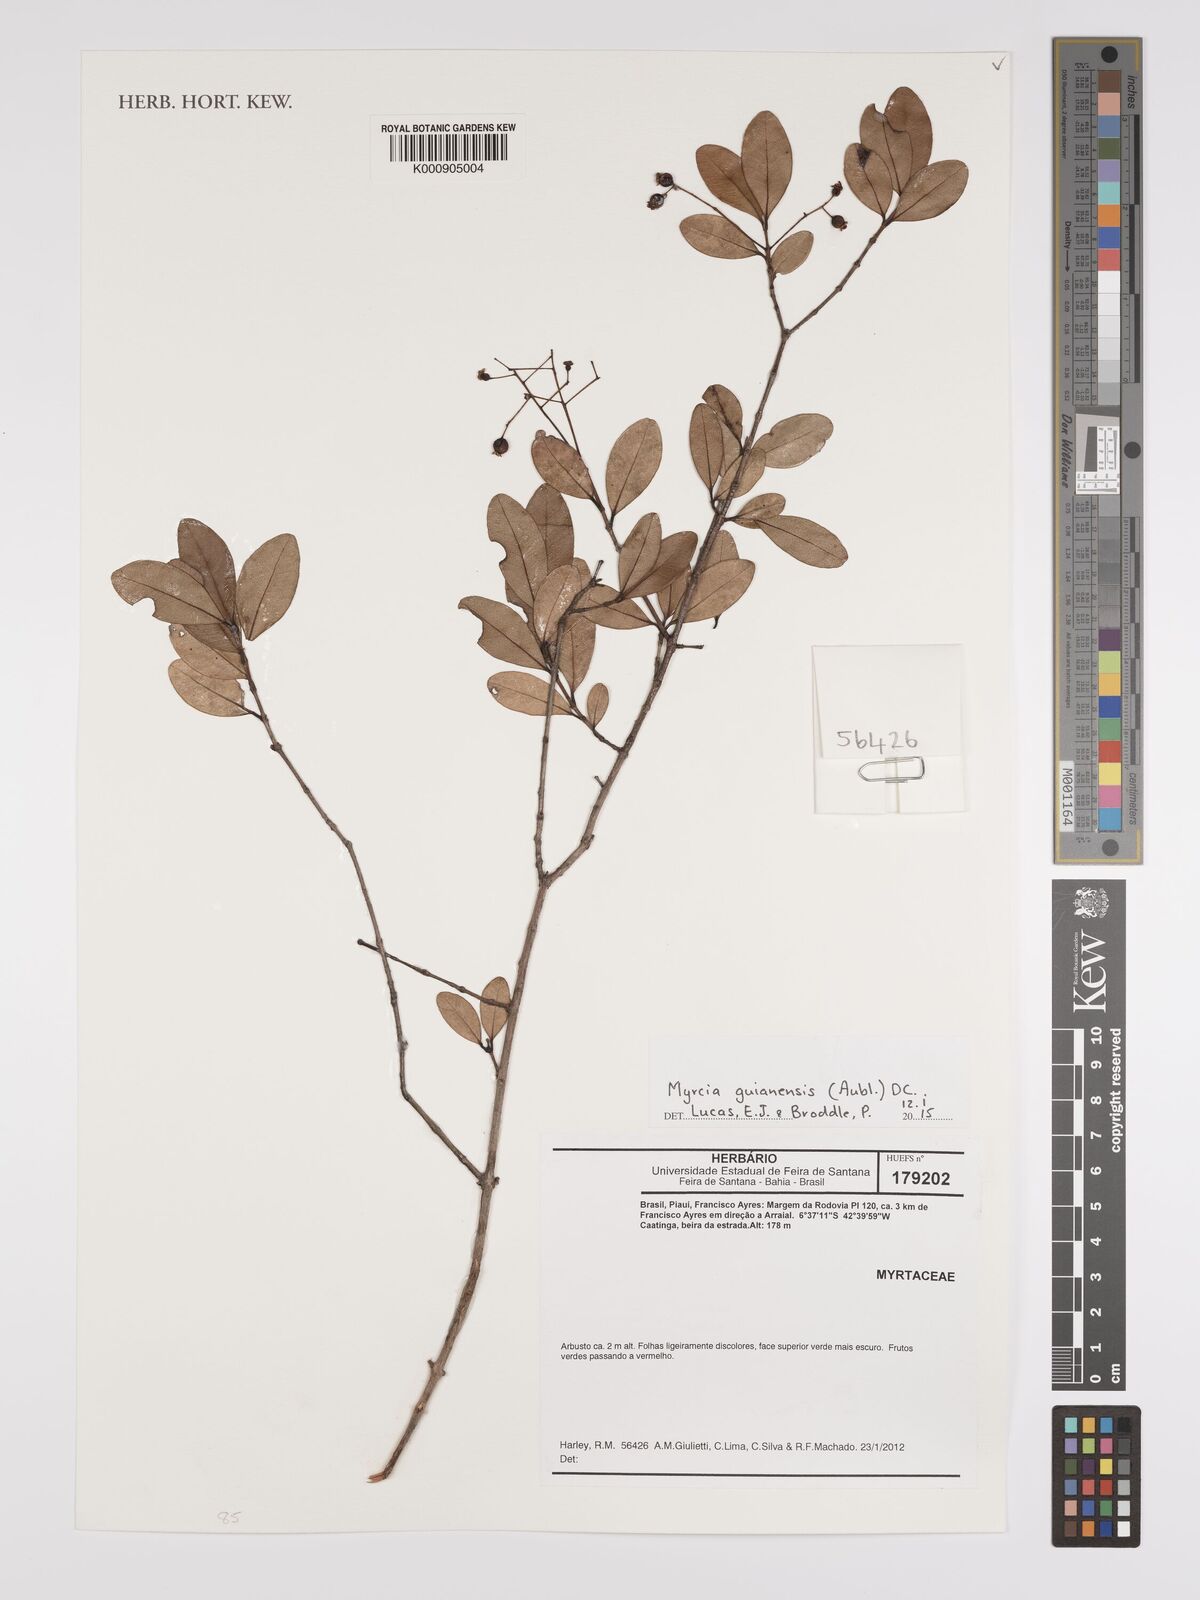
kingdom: Plantae
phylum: Tracheophyta
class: Magnoliopsida
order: Myrtales
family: Myrtaceae
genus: Myrcia
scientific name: Myrcia guianensis
